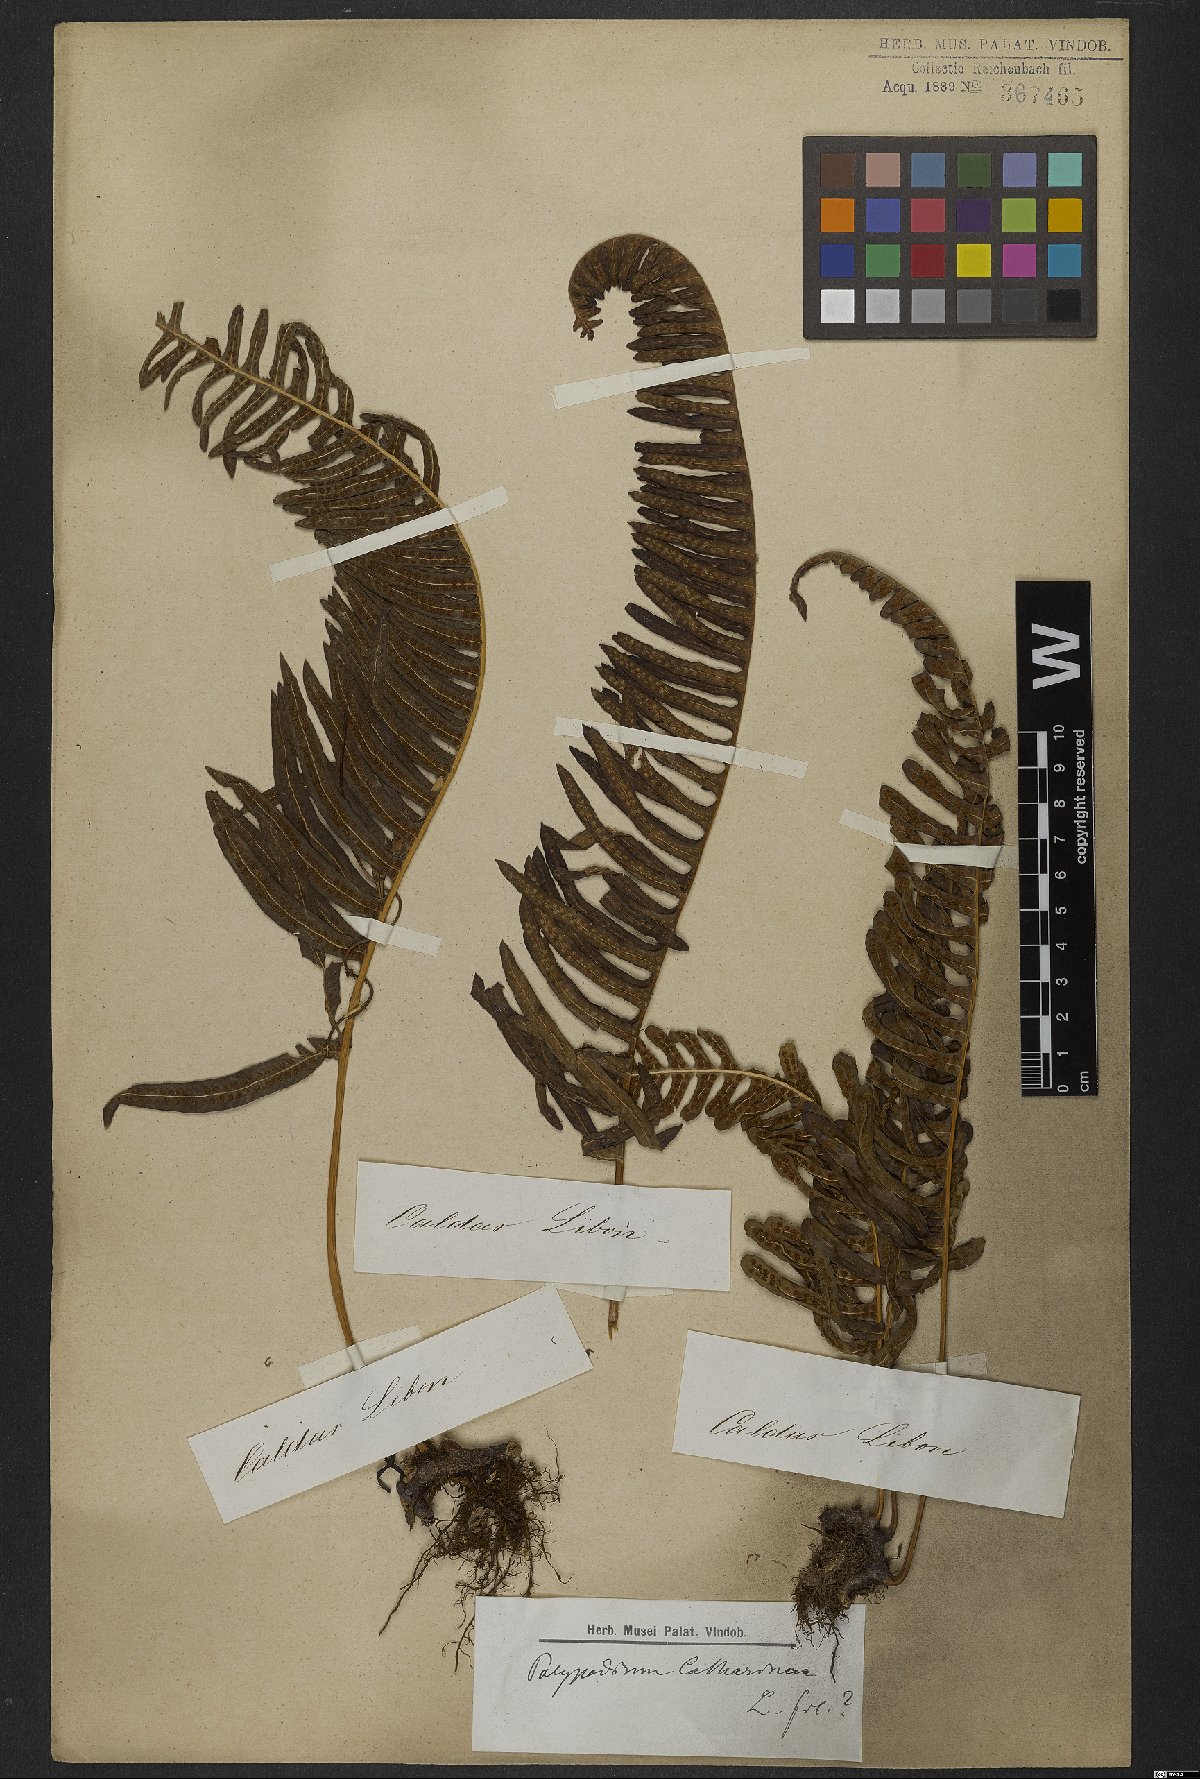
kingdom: Plantae
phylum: Tracheophyta
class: Polypodiopsida
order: Polypodiales
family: Polypodiaceae
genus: Serpocaulon
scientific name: Serpocaulon catharinae
